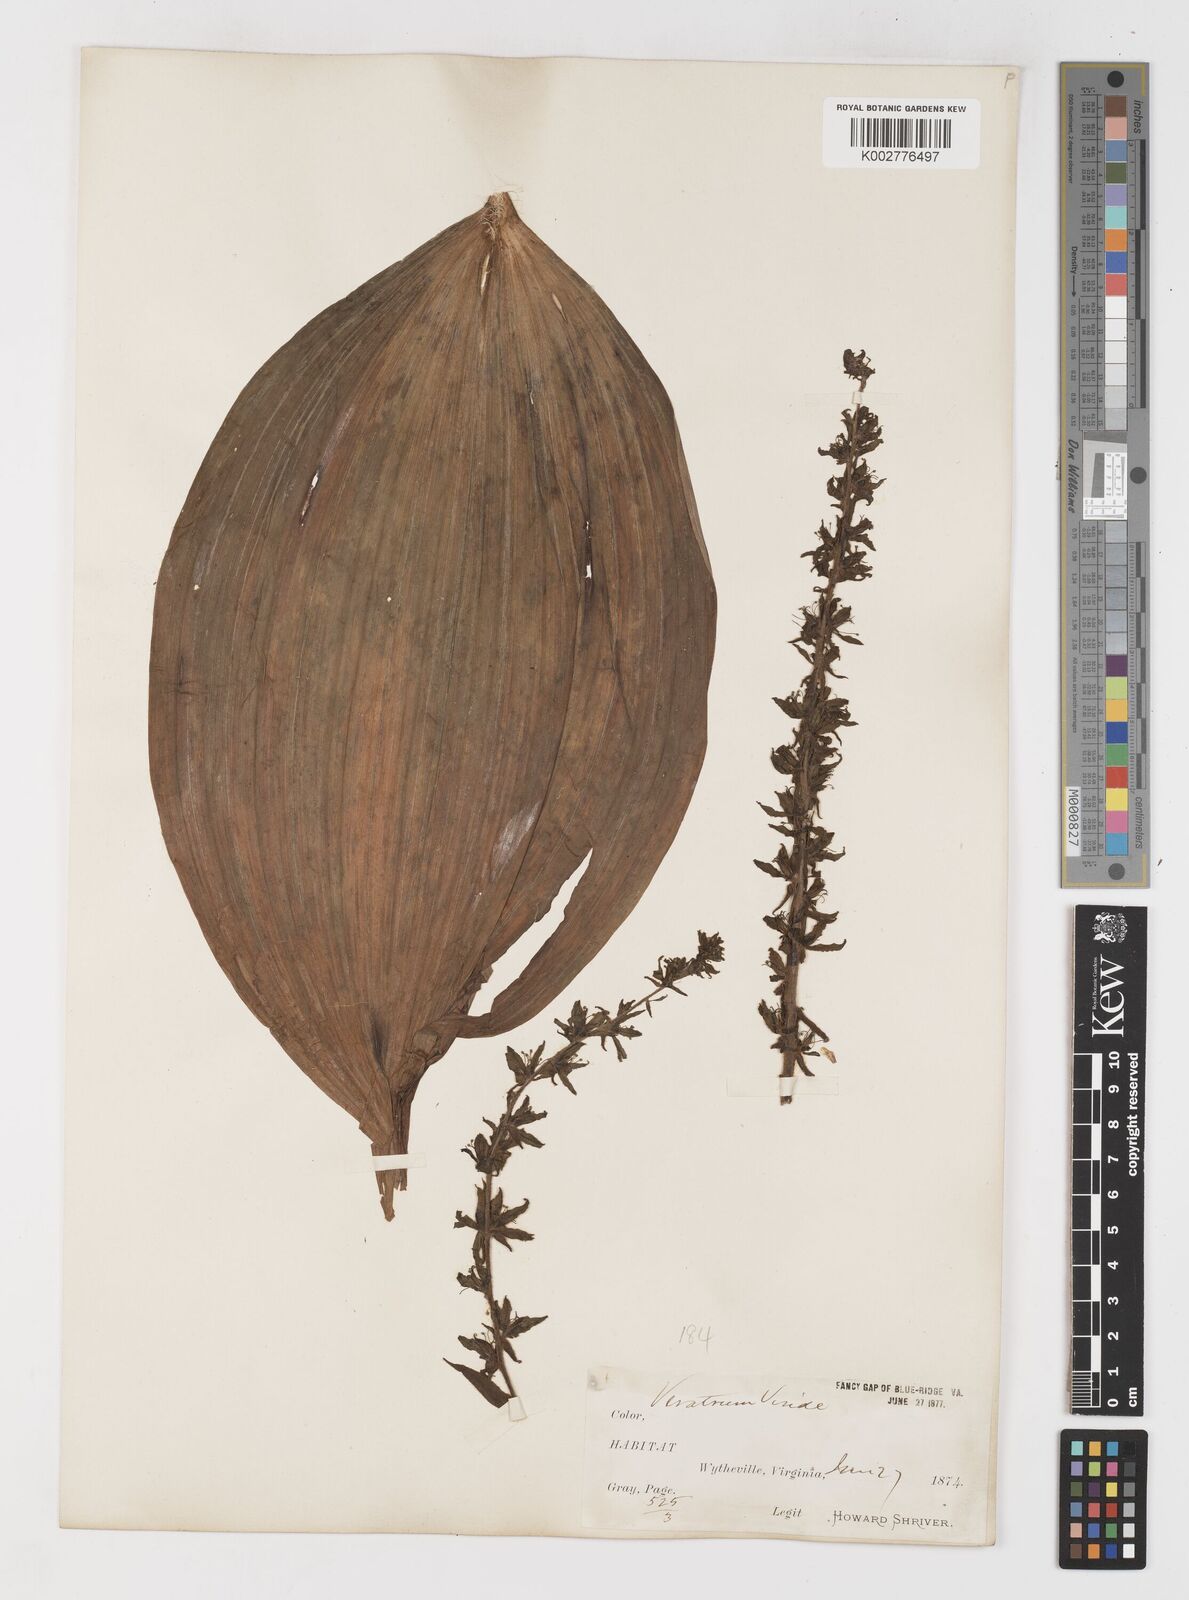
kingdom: Plantae
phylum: Tracheophyta
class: Liliopsida
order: Liliales
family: Melanthiaceae
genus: Veratrum
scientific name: Veratrum viride
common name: American false hellebore
